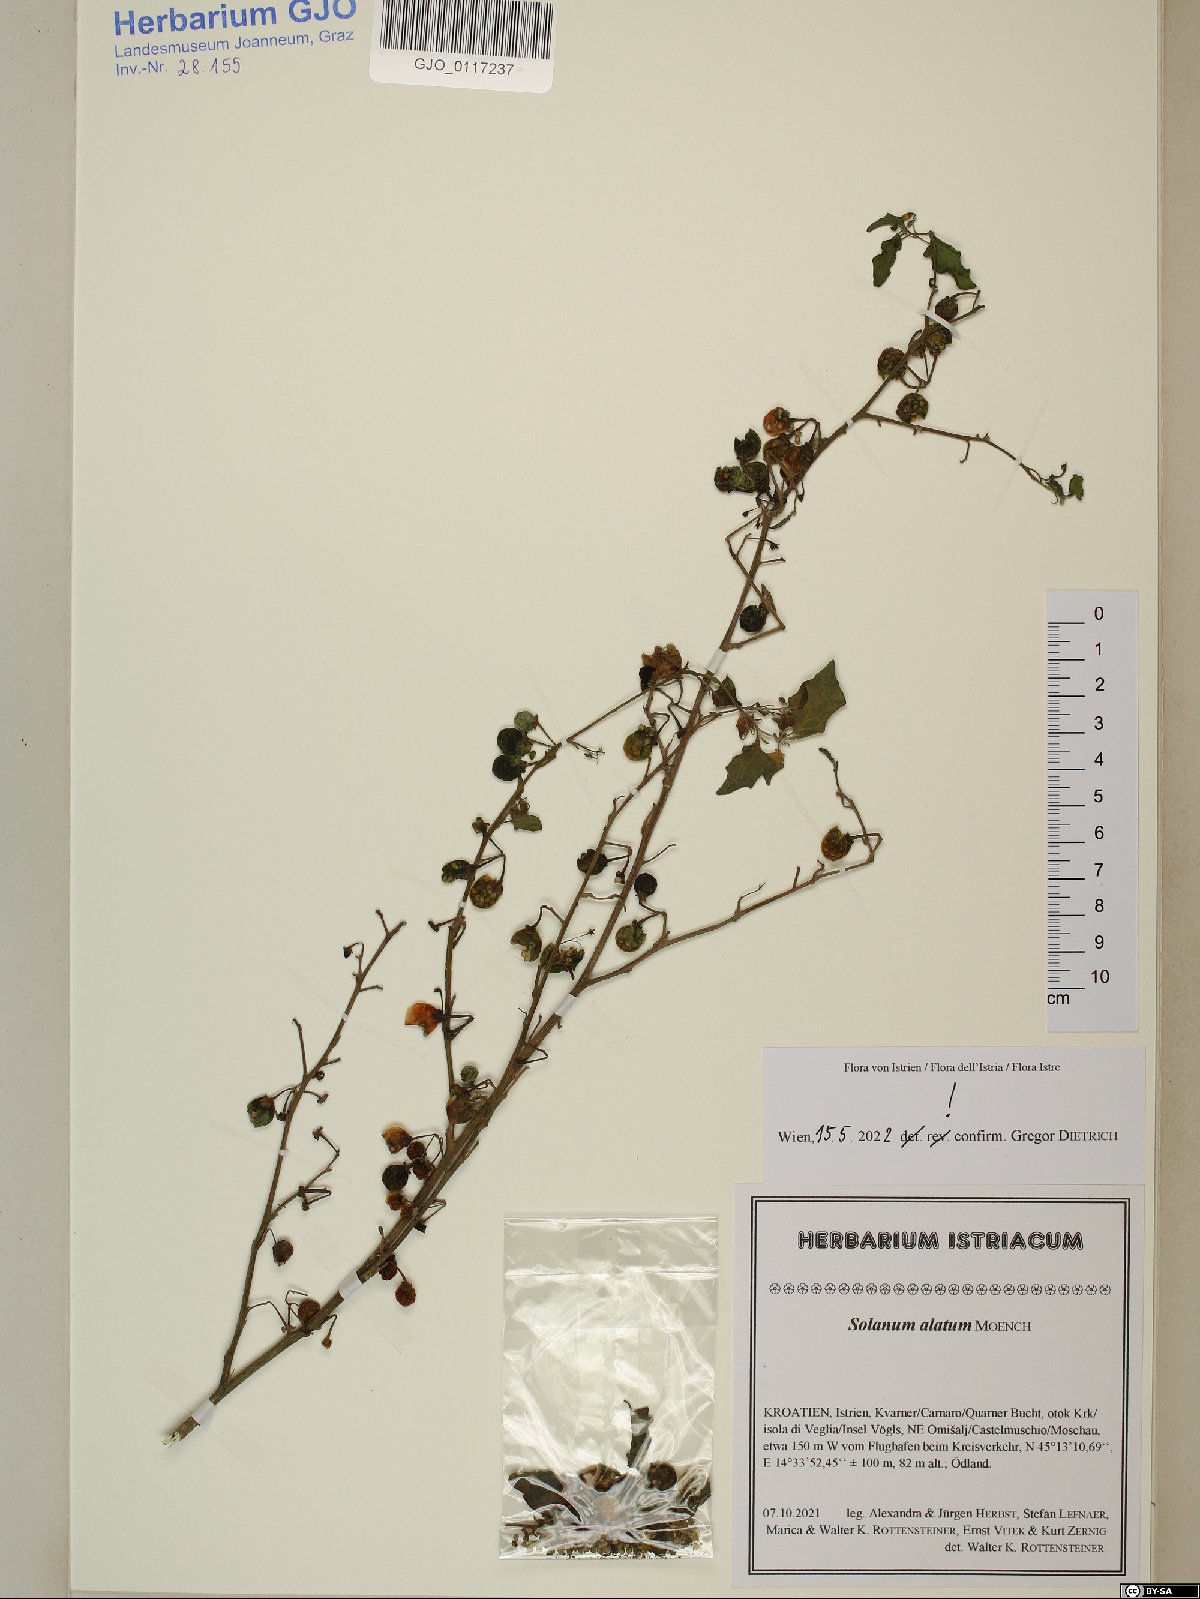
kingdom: Plantae
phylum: Tracheophyta
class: Magnoliopsida
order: Solanales
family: Solanaceae
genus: Solanum
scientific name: Solanum alatum
